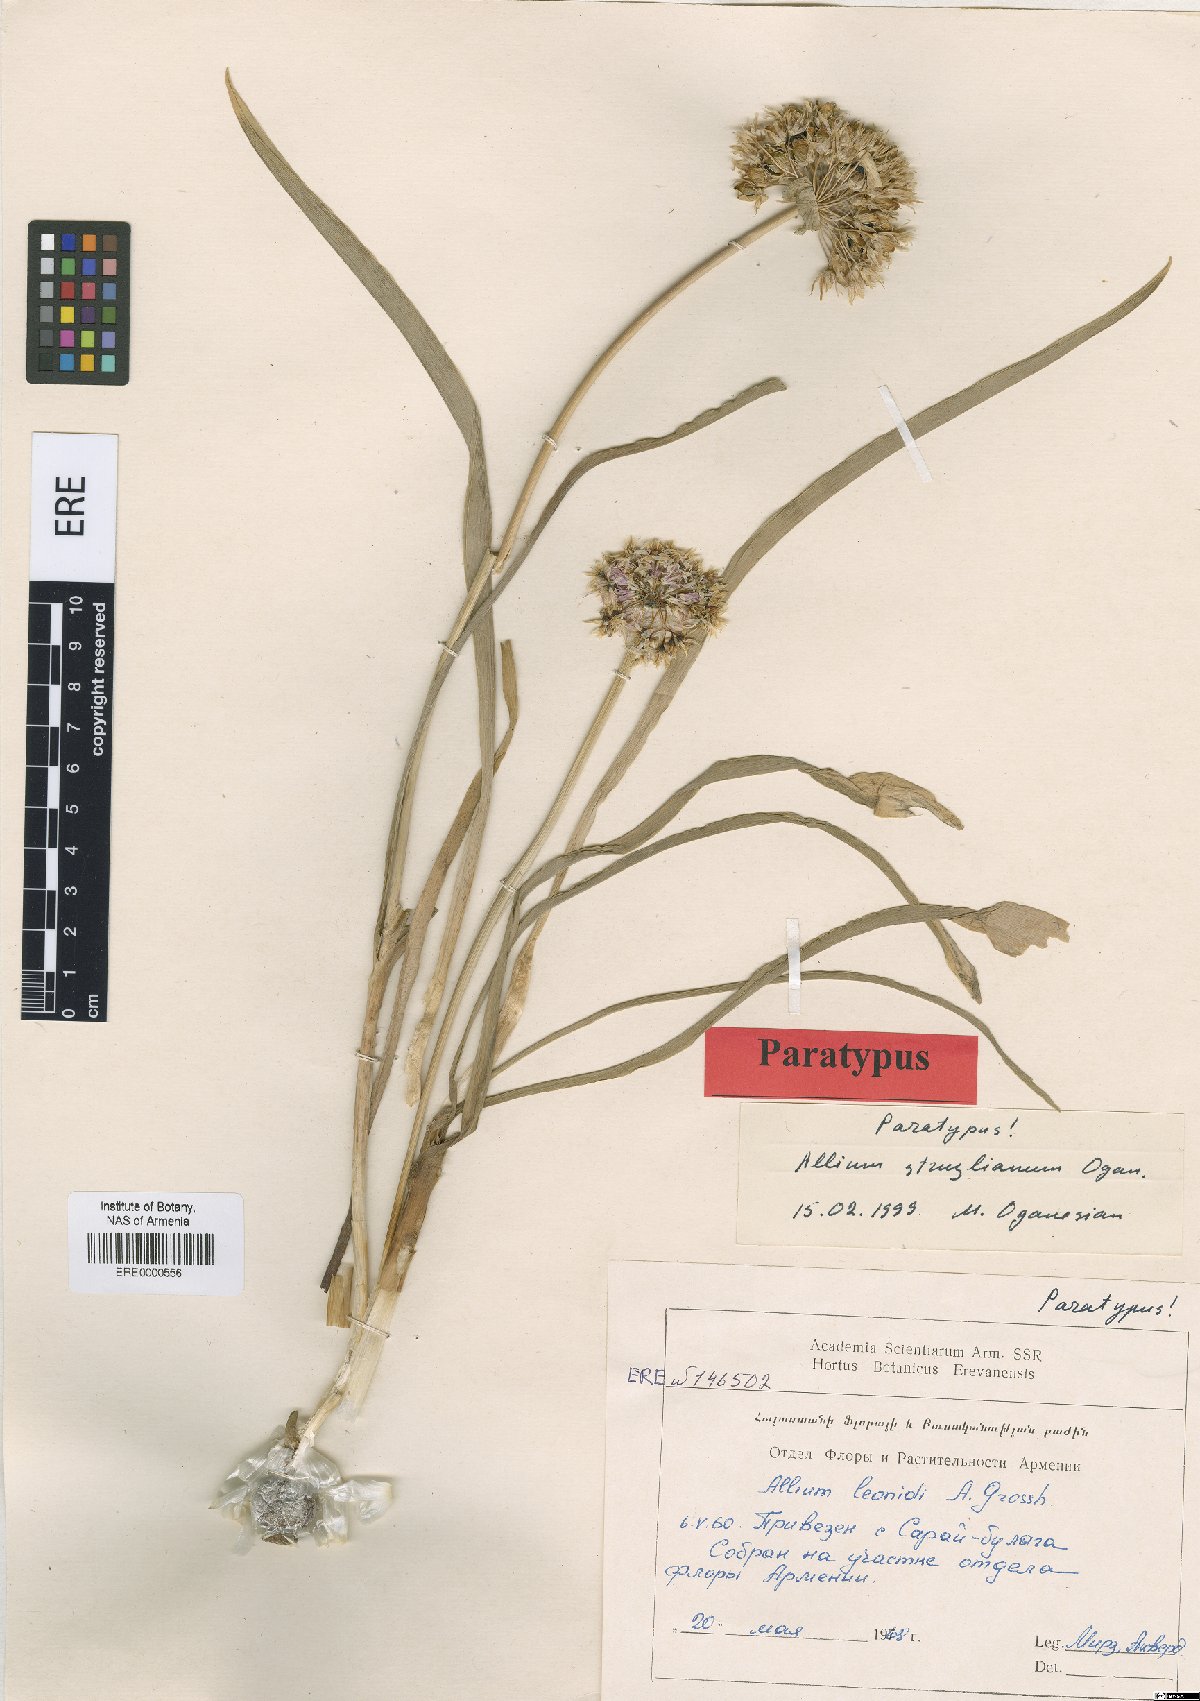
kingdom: Plantae
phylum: Tracheophyta
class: Liliopsida
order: Asparagales
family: Amaryllidaceae
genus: Allium
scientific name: Allium struzlianum
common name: Struzl's onion
